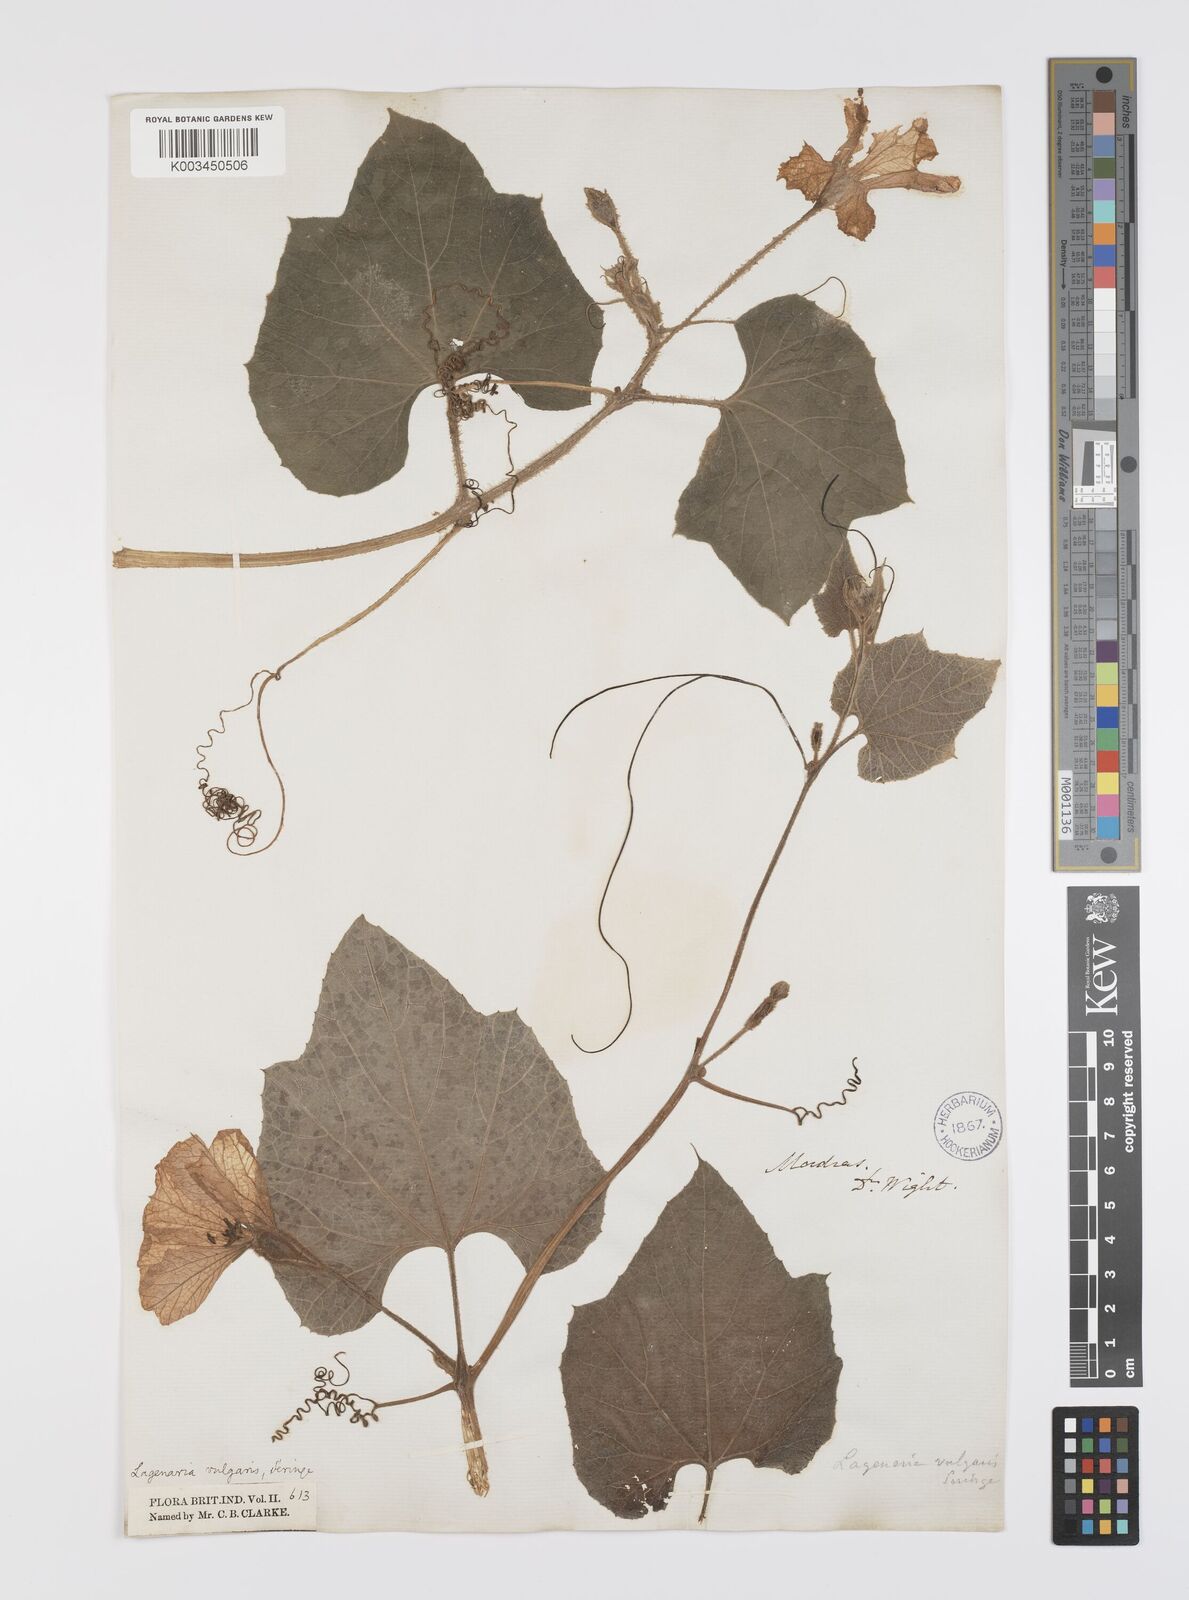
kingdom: Plantae
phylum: Tracheophyta
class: Magnoliopsida
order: Cucurbitales
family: Cucurbitaceae
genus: Lagenaria
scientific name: Lagenaria siceraria
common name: Bottle gourd
